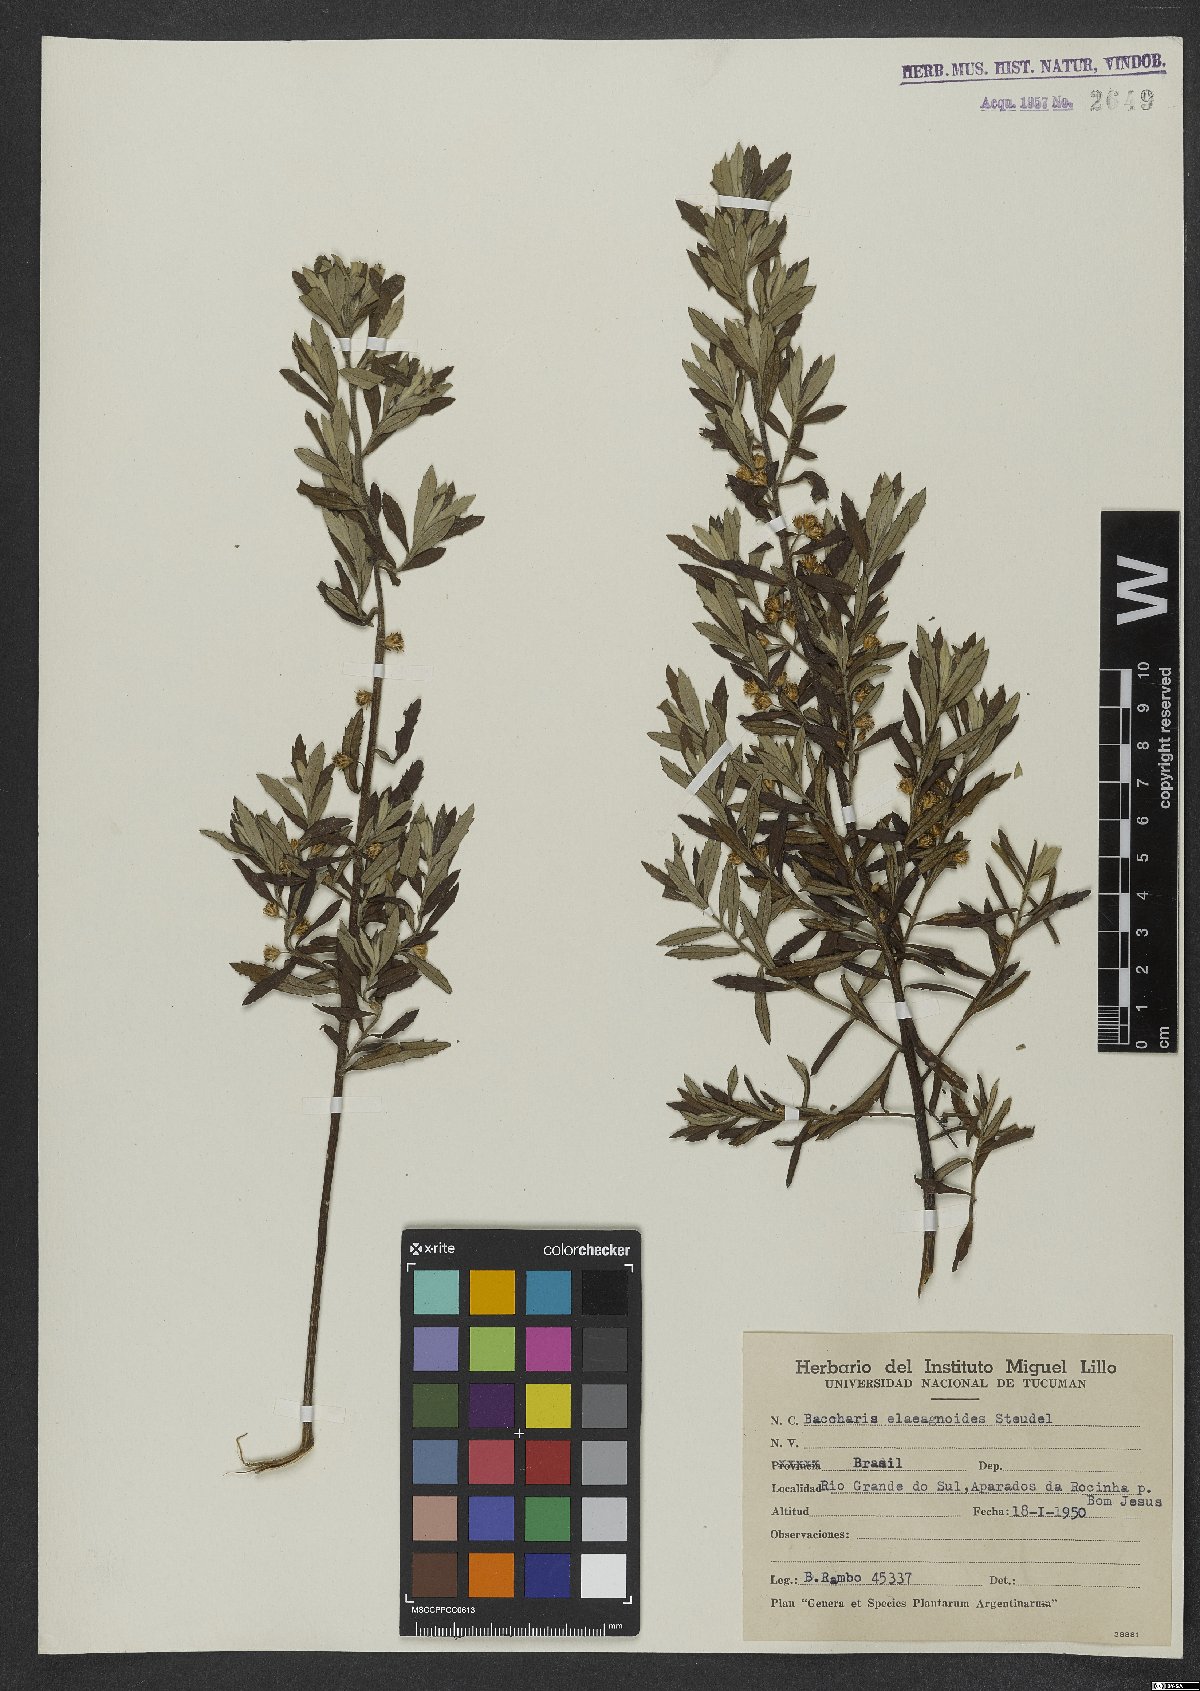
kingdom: Plantae
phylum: Tracheophyta
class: Magnoliopsida
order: Asterales
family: Asteraceae
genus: Baccharis
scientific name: Baccharis montana
